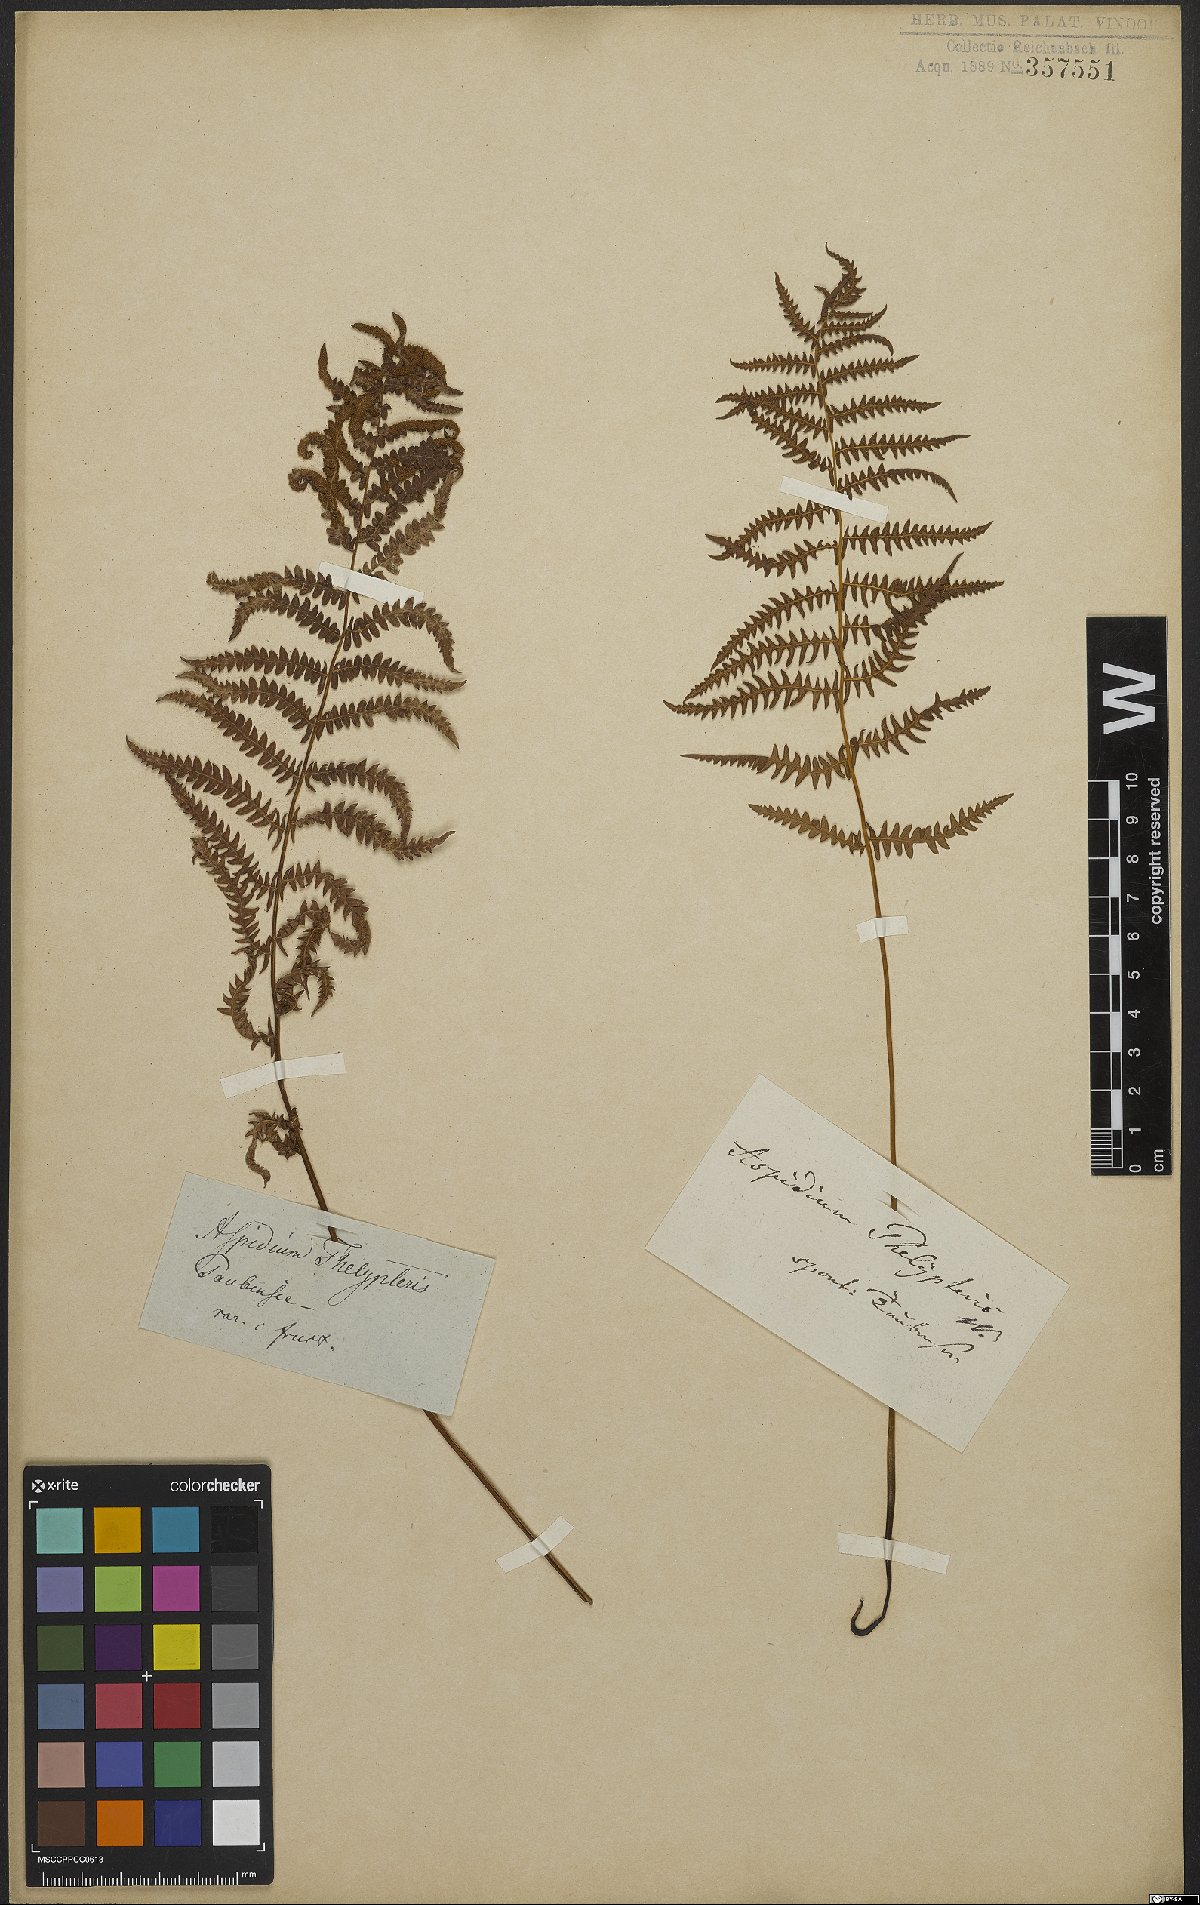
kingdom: Plantae
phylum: Tracheophyta
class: Polypodiopsida
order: Polypodiales
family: Thelypteridaceae
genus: Thelypteris
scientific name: Thelypteris palustris
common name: Marsh fern
